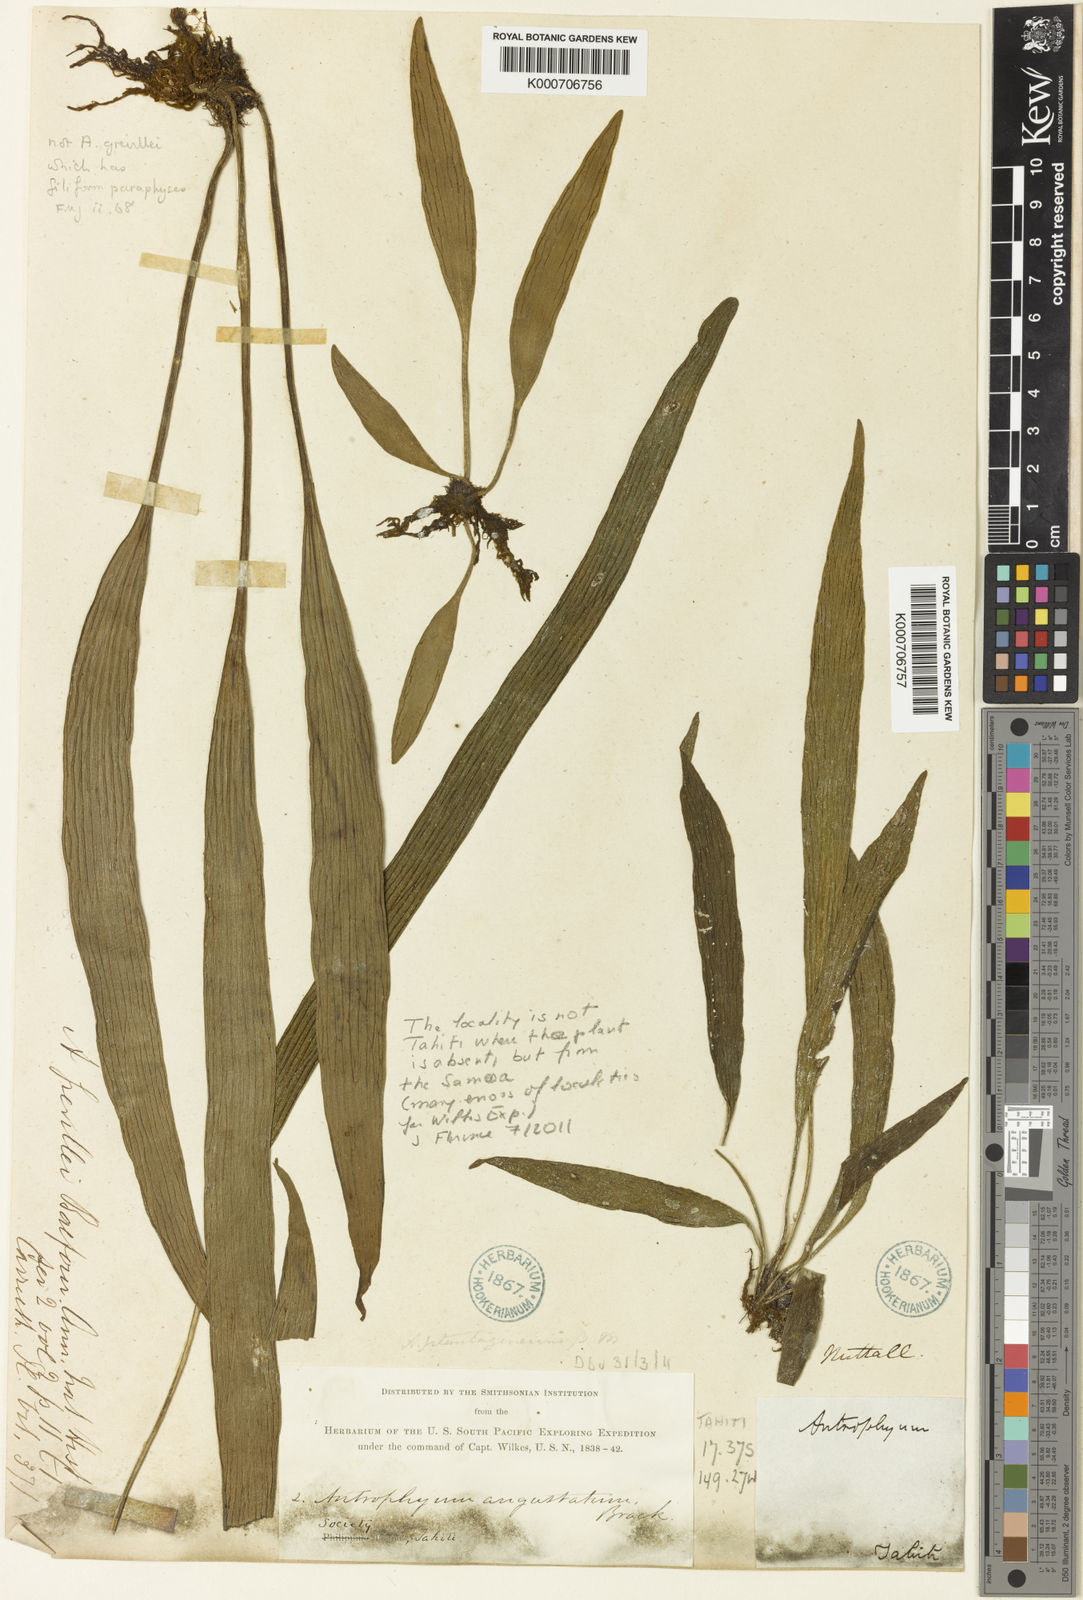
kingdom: Plantae
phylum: Tracheophyta
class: Polypodiopsida
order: Polypodiales
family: Pteridaceae
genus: Antrophyum
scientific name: Antrophyum novae-caledoniae
